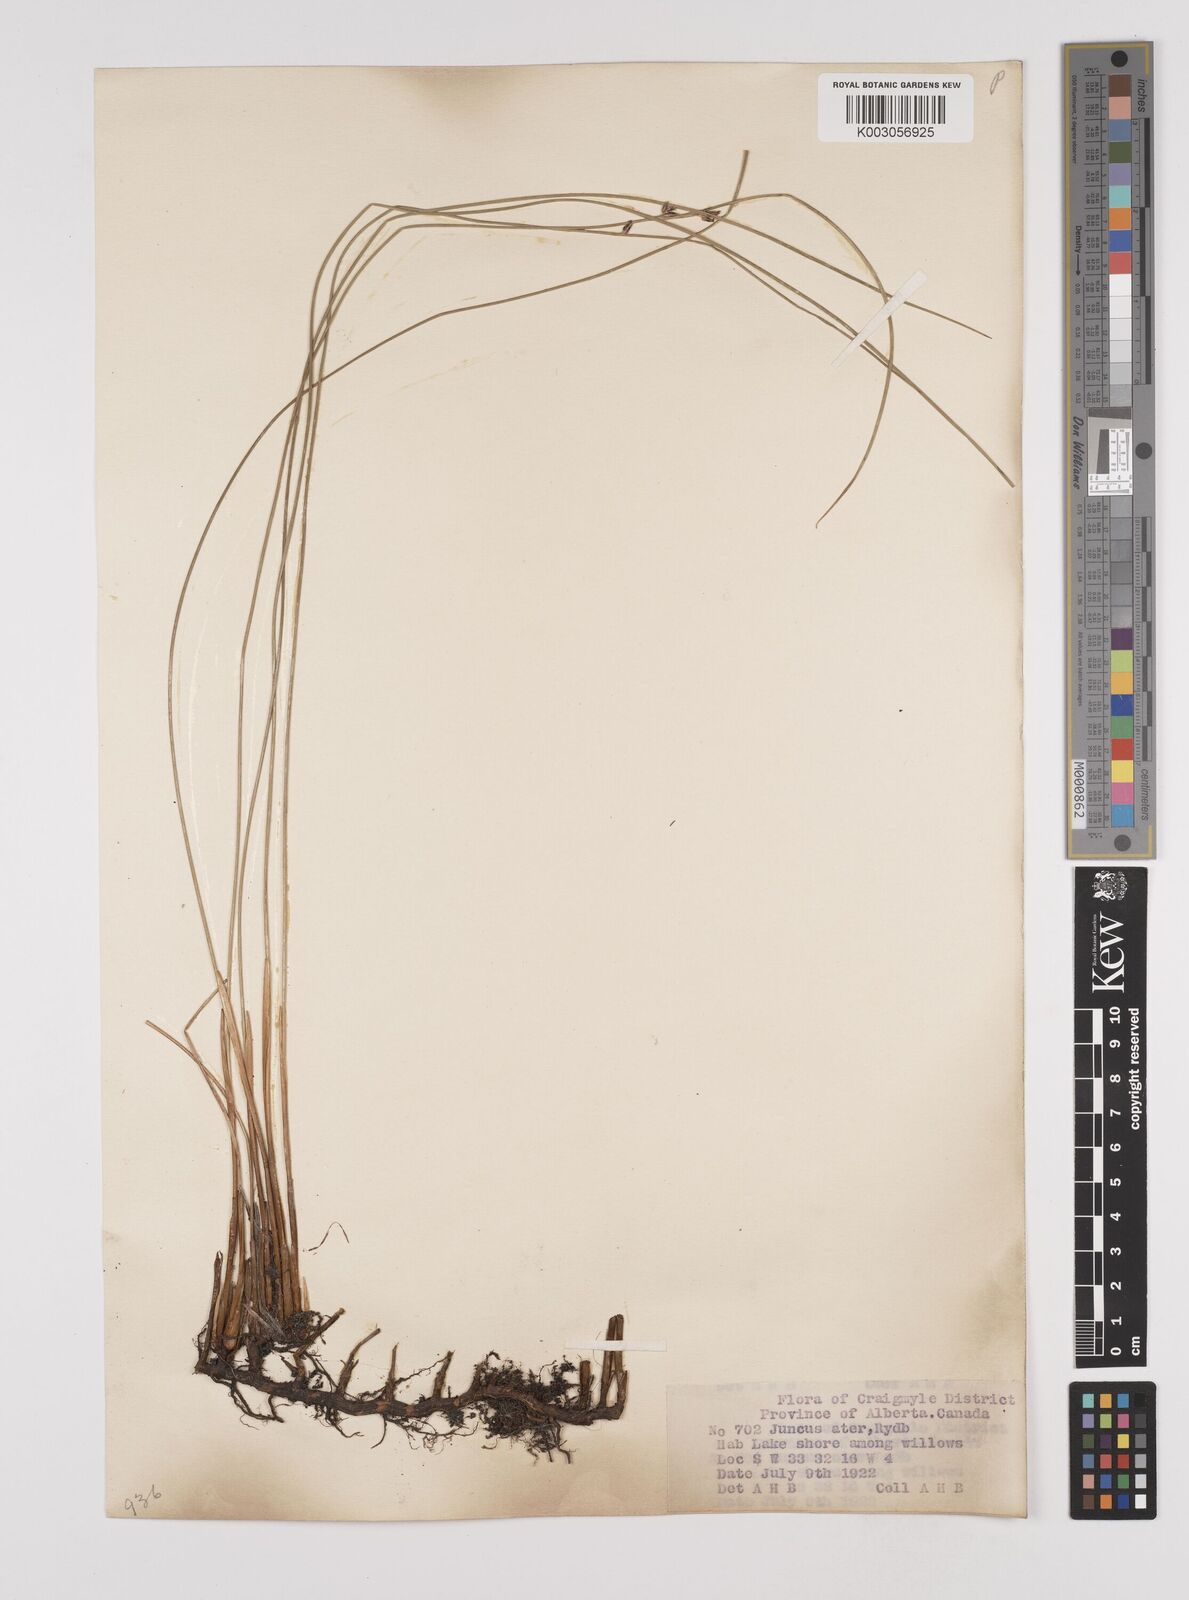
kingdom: Plantae
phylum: Tracheophyta
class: Liliopsida
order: Poales
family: Juncaceae
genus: Juncus
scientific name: Juncus balticus
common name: Baltic rush
